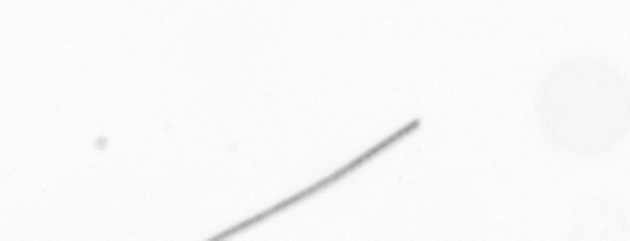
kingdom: Chromista
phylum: Ochrophyta
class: Bacillariophyceae
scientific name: Bacillariophyceae
